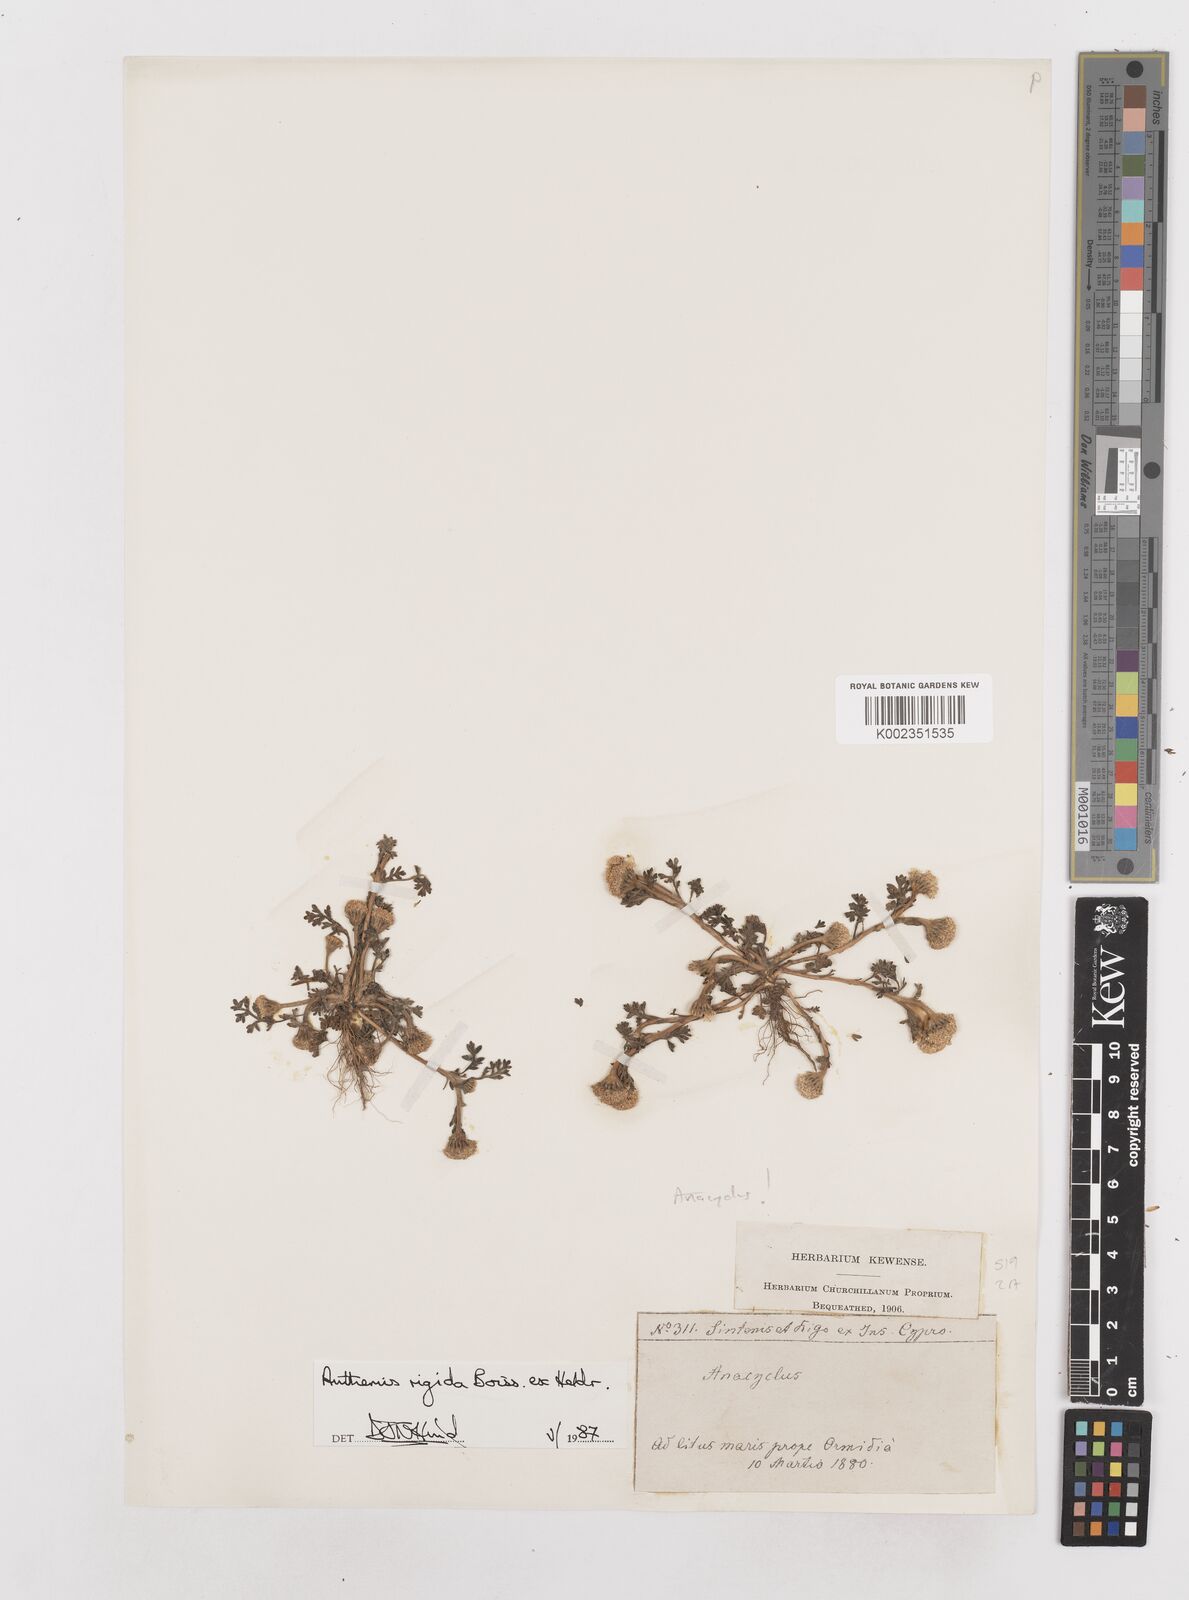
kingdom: Plantae
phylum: Tracheophyta
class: Magnoliopsida
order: Asterales
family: Asteraceae
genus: Anthemis
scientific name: Anthemis rigida
